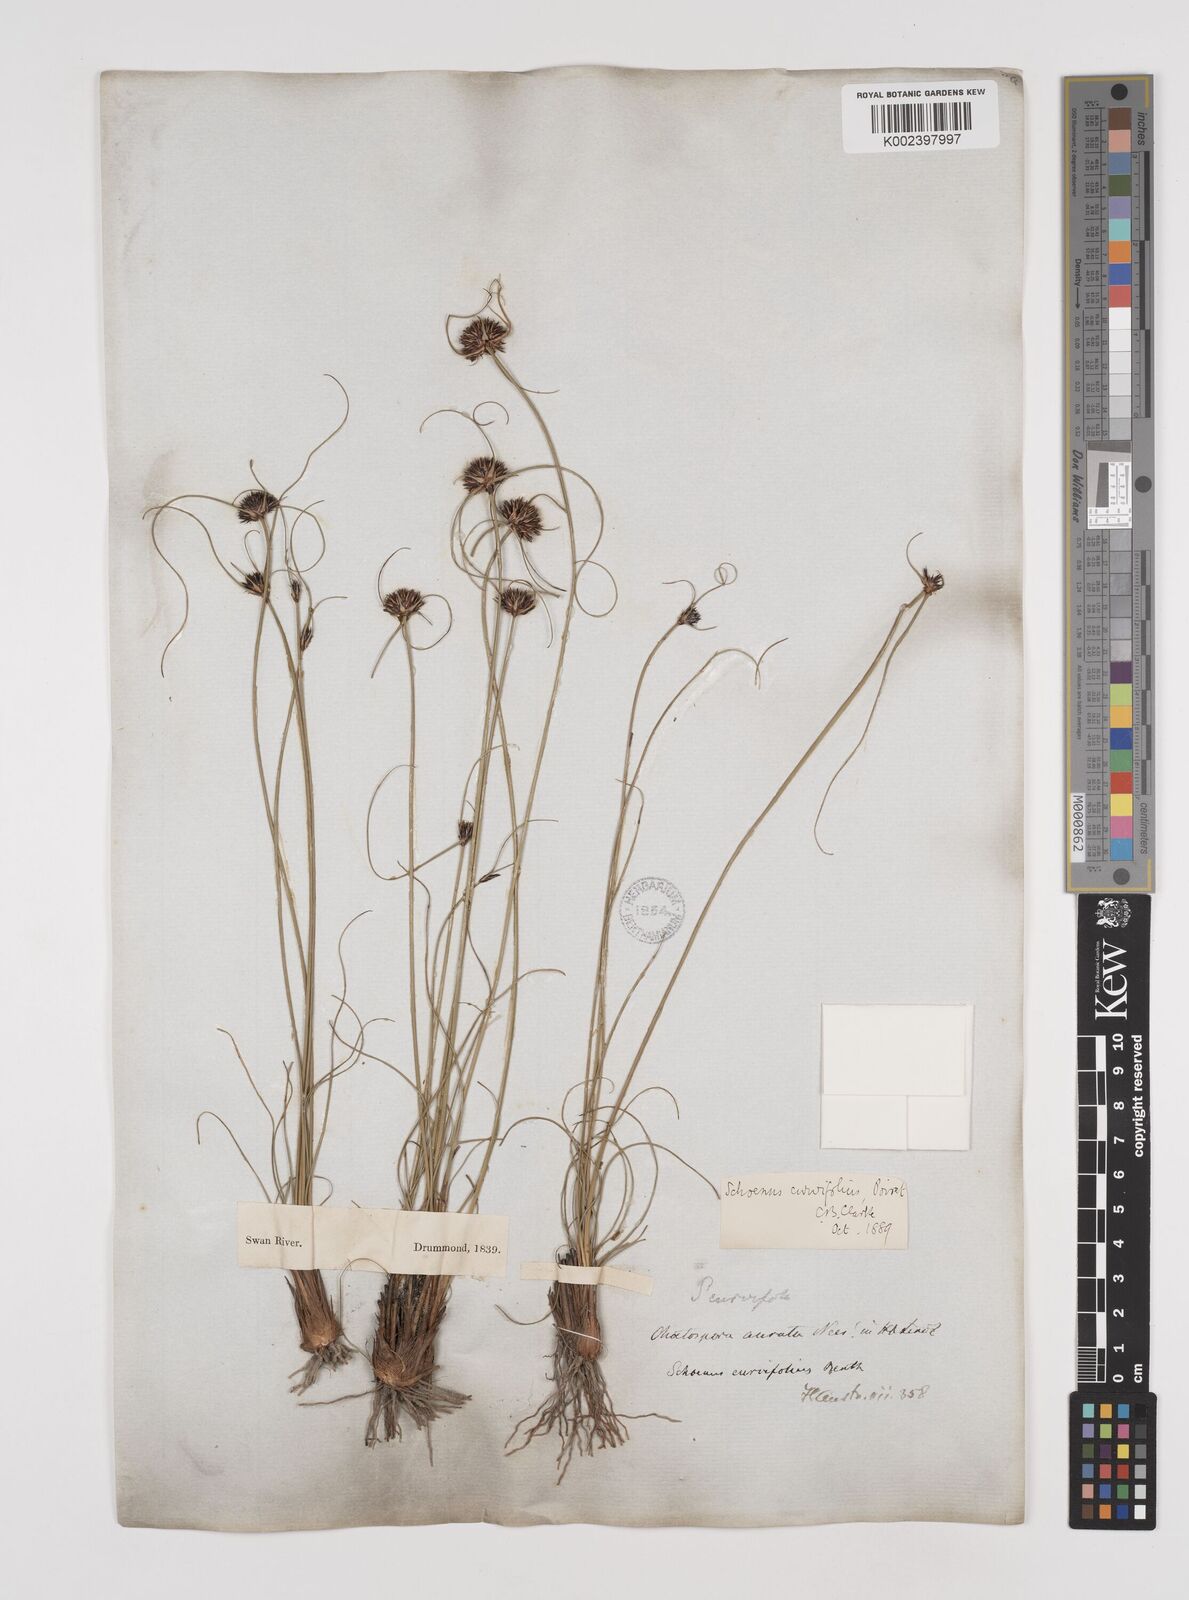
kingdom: Plantae
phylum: Tracheophyta
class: Liliopsida
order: Poales
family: Cyperaceae
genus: Schoenus
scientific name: Schoenus curvifolius
